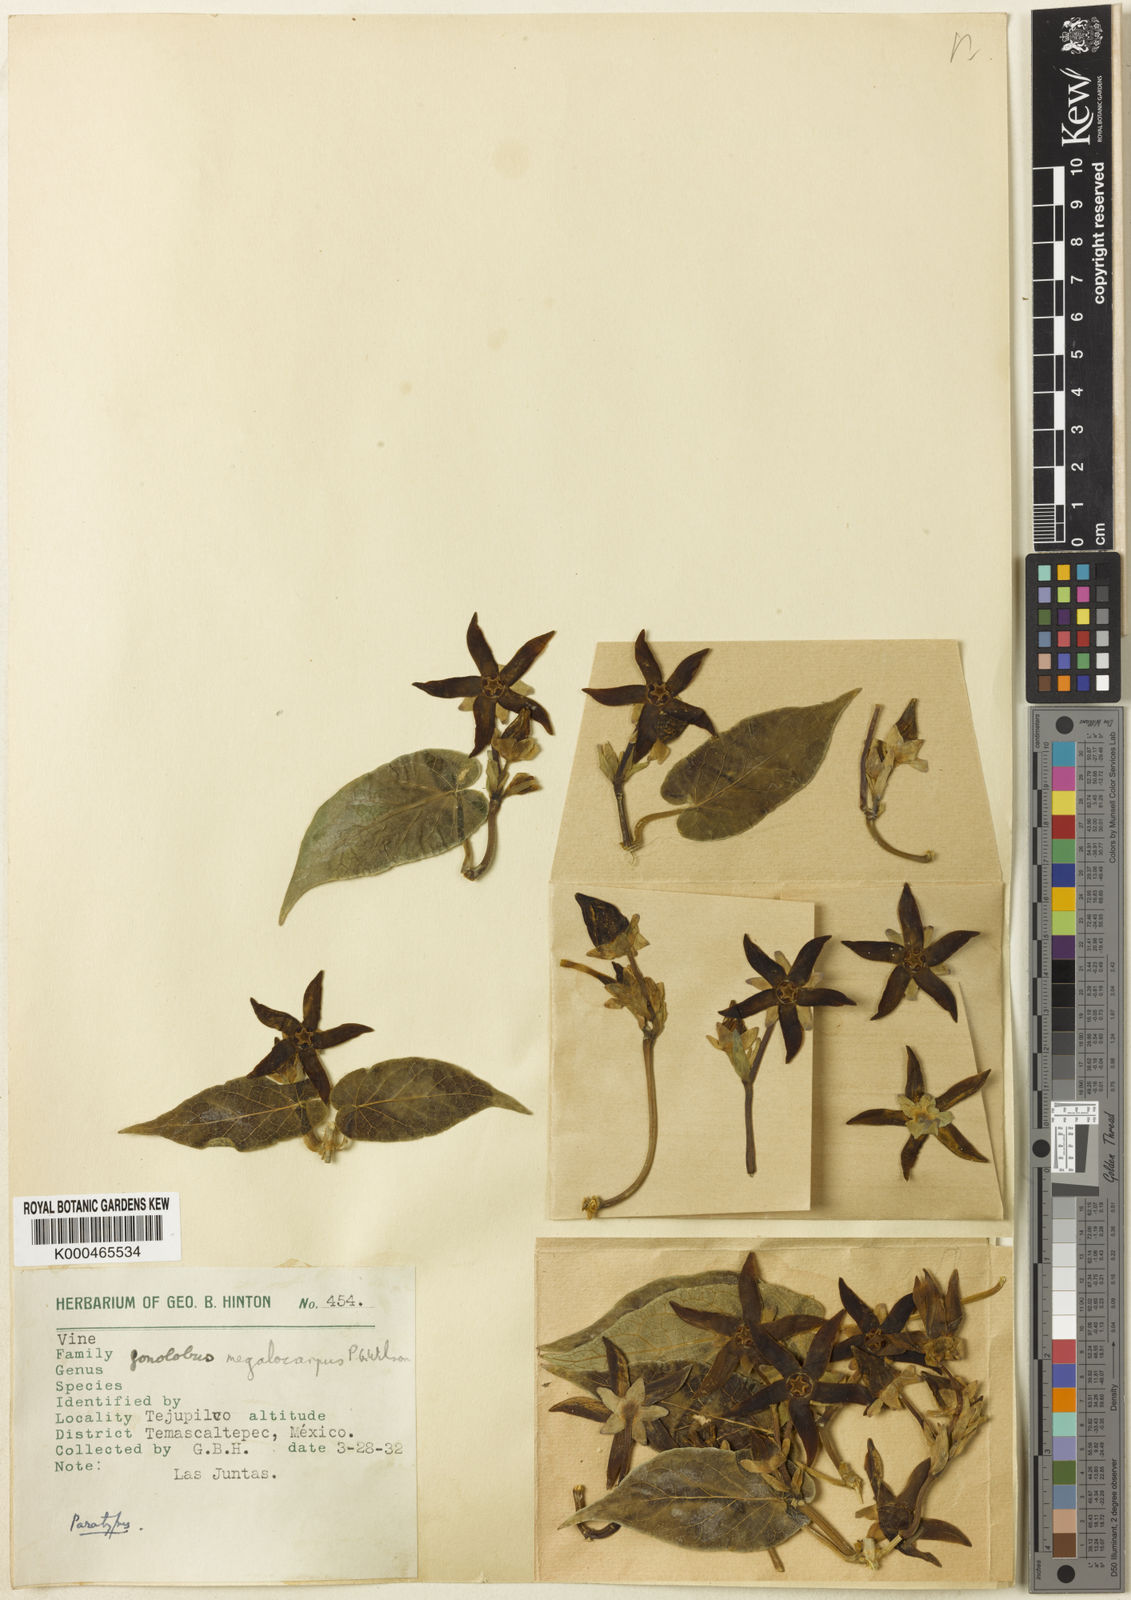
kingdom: Plantae
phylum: Tracheophyta
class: Magnoliopsida
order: Gentianales
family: Apocynaceae
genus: Gonolobus
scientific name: Gonolobus pancololote
